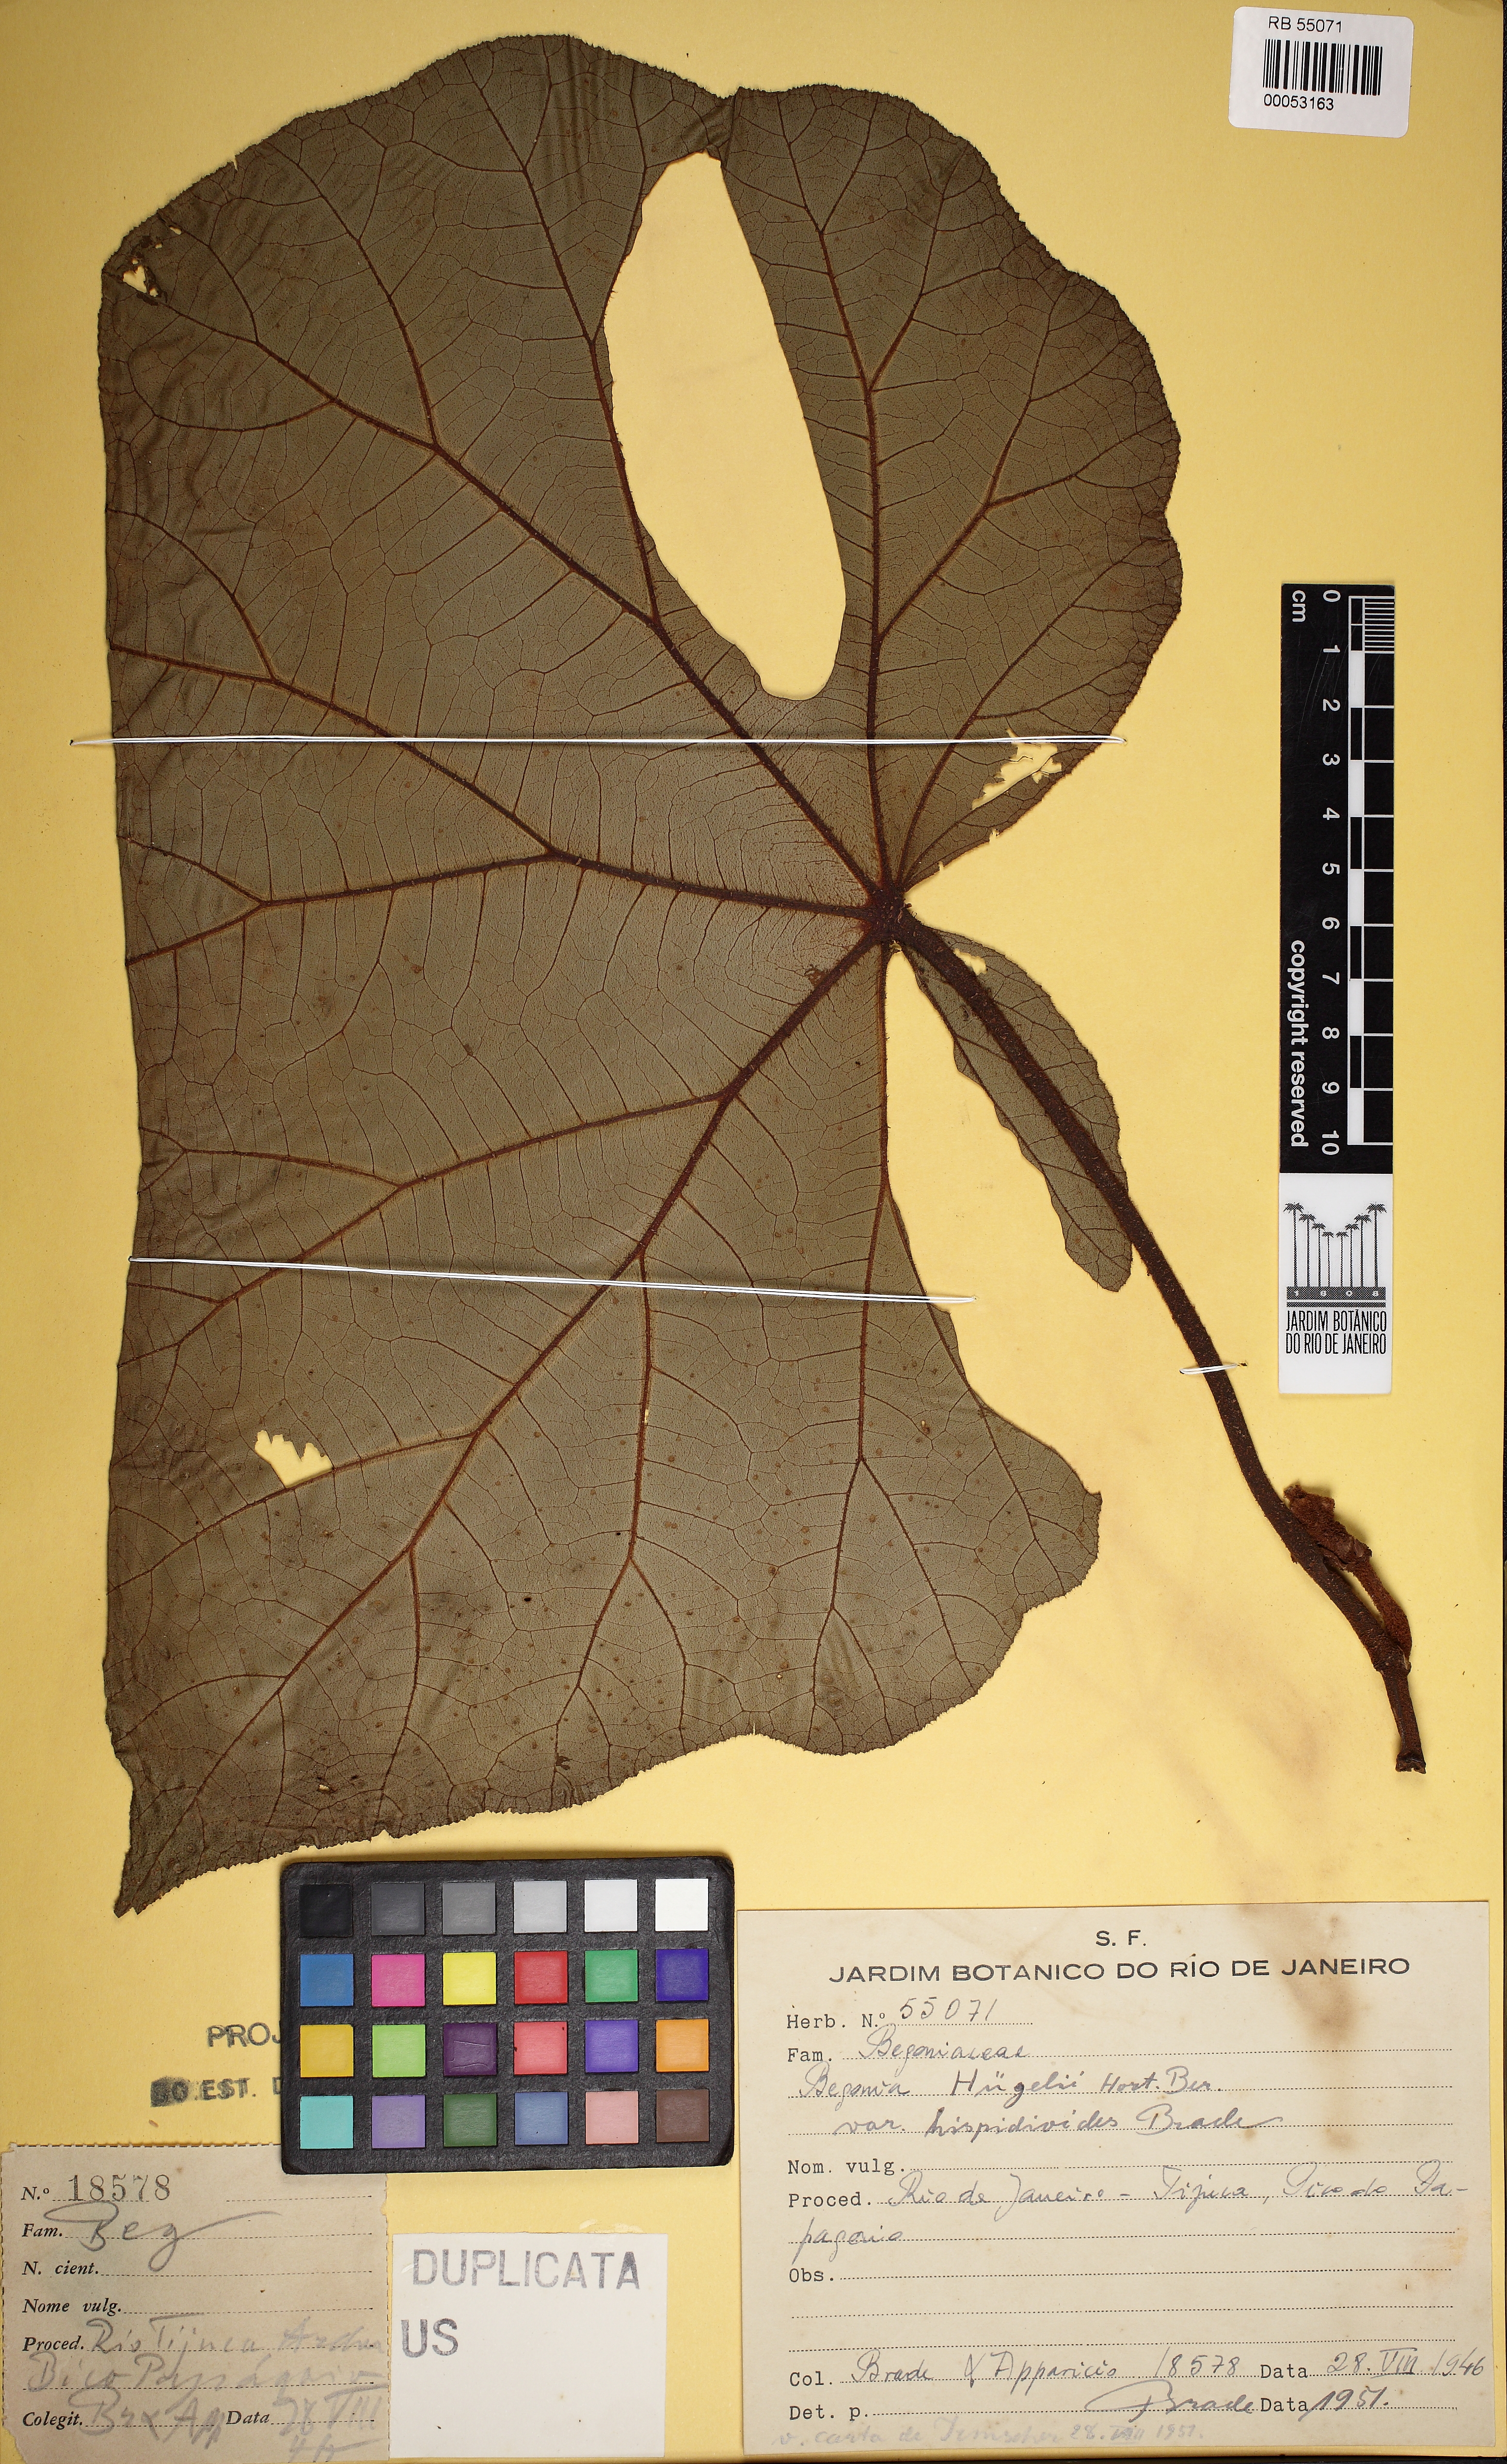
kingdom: Plantae
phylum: Tracheophyta
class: Magnoliopsida
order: Cucurbitales
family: Begoniaceae
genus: Begonia
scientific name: Begonia huegelii
